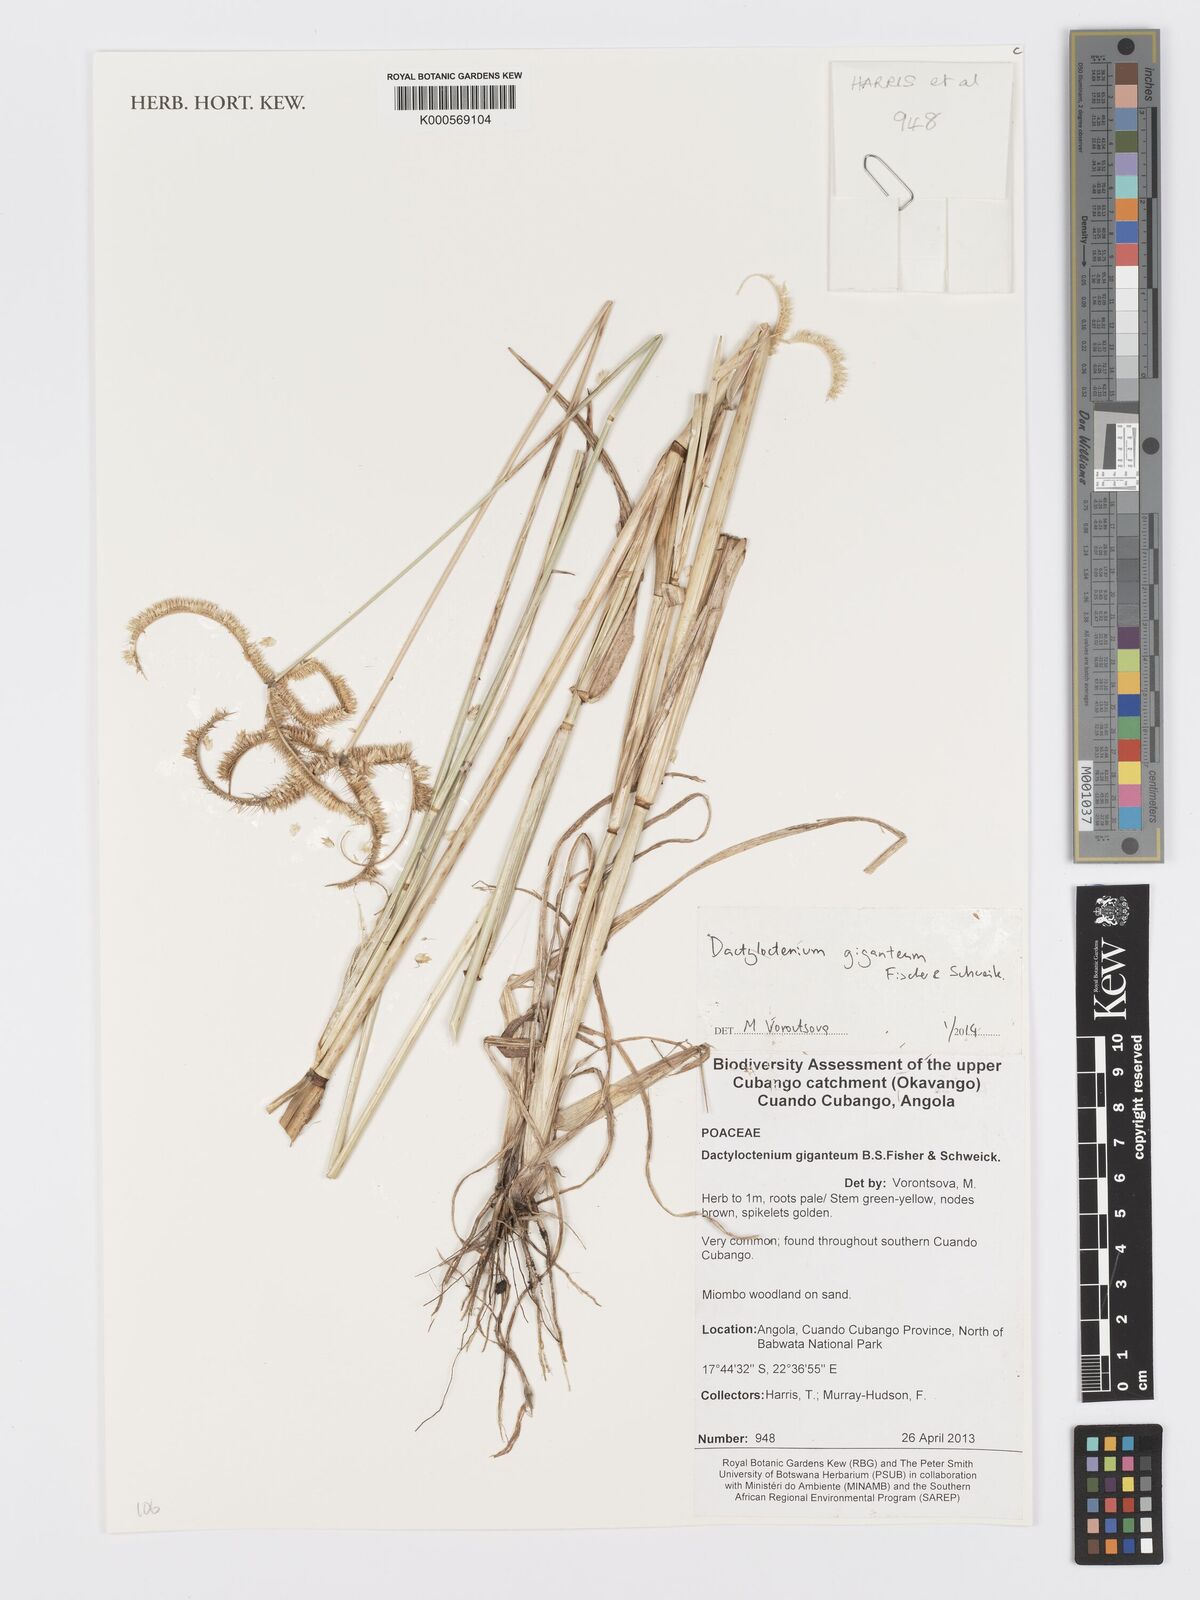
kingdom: Plantae
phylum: Tracheophyta
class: Liliopsida
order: Poales
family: Poaceae
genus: Dactyloctenium
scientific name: Dactyloctenium giganteum
